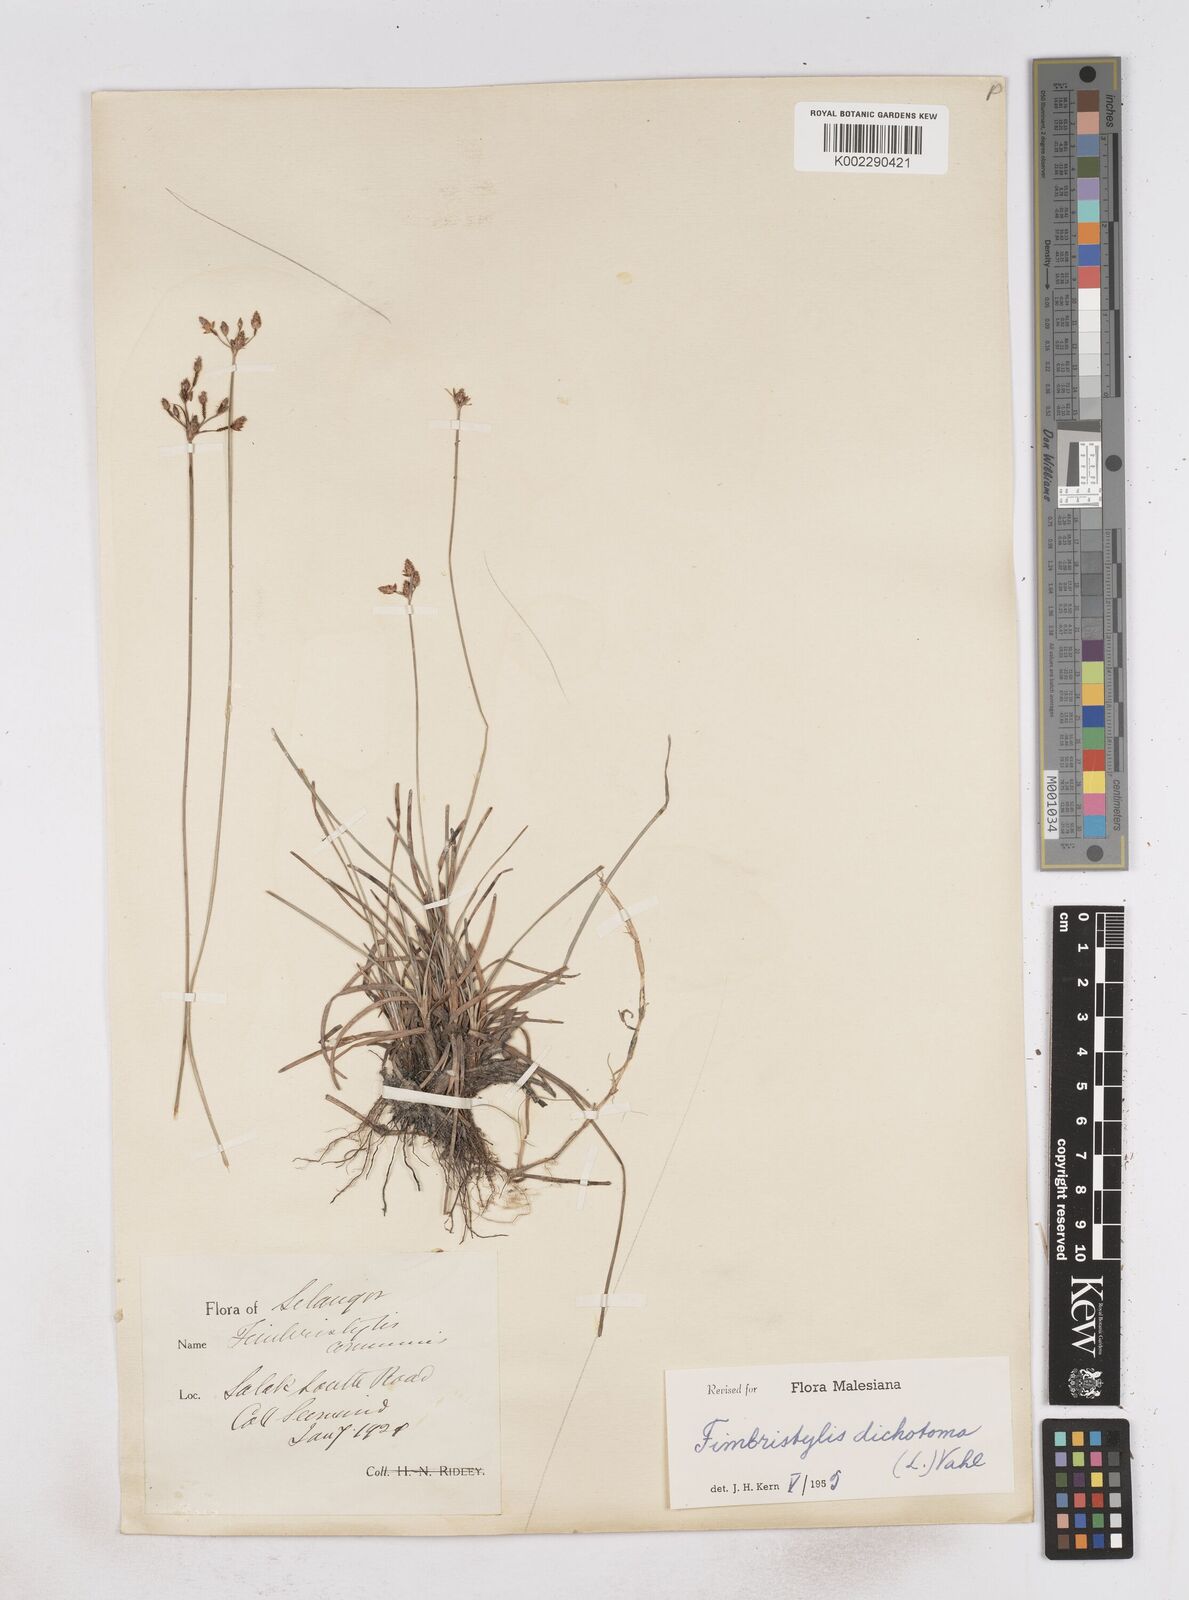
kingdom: Plantae
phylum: Tracheophyta
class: Liliopsida
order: Poales
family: Cyperaceae
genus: Fimbristylis
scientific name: Fimbristylis dichotoma
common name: Forked fimbry
